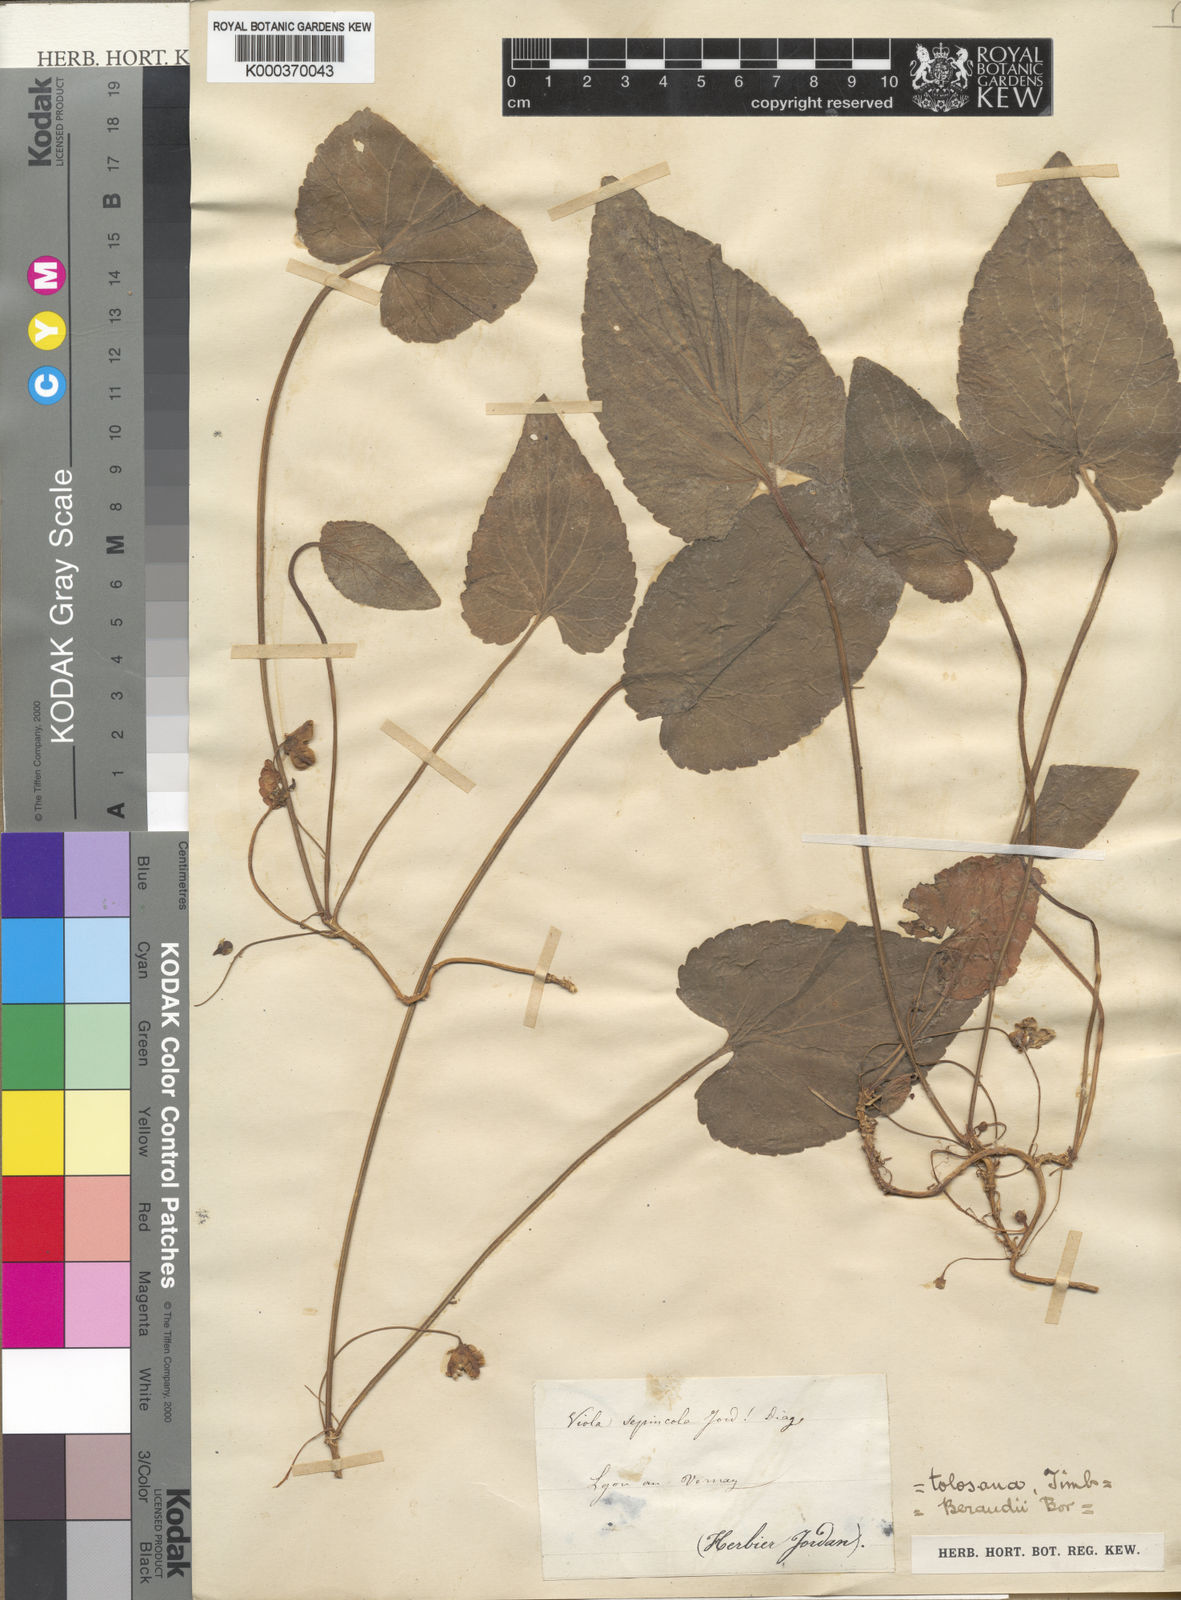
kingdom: Plantae
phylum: Tracheophyta
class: Magnoliopsida
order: Malpighiales
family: Violaceae
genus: Viola
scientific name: Viola suavis
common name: Russian violet
